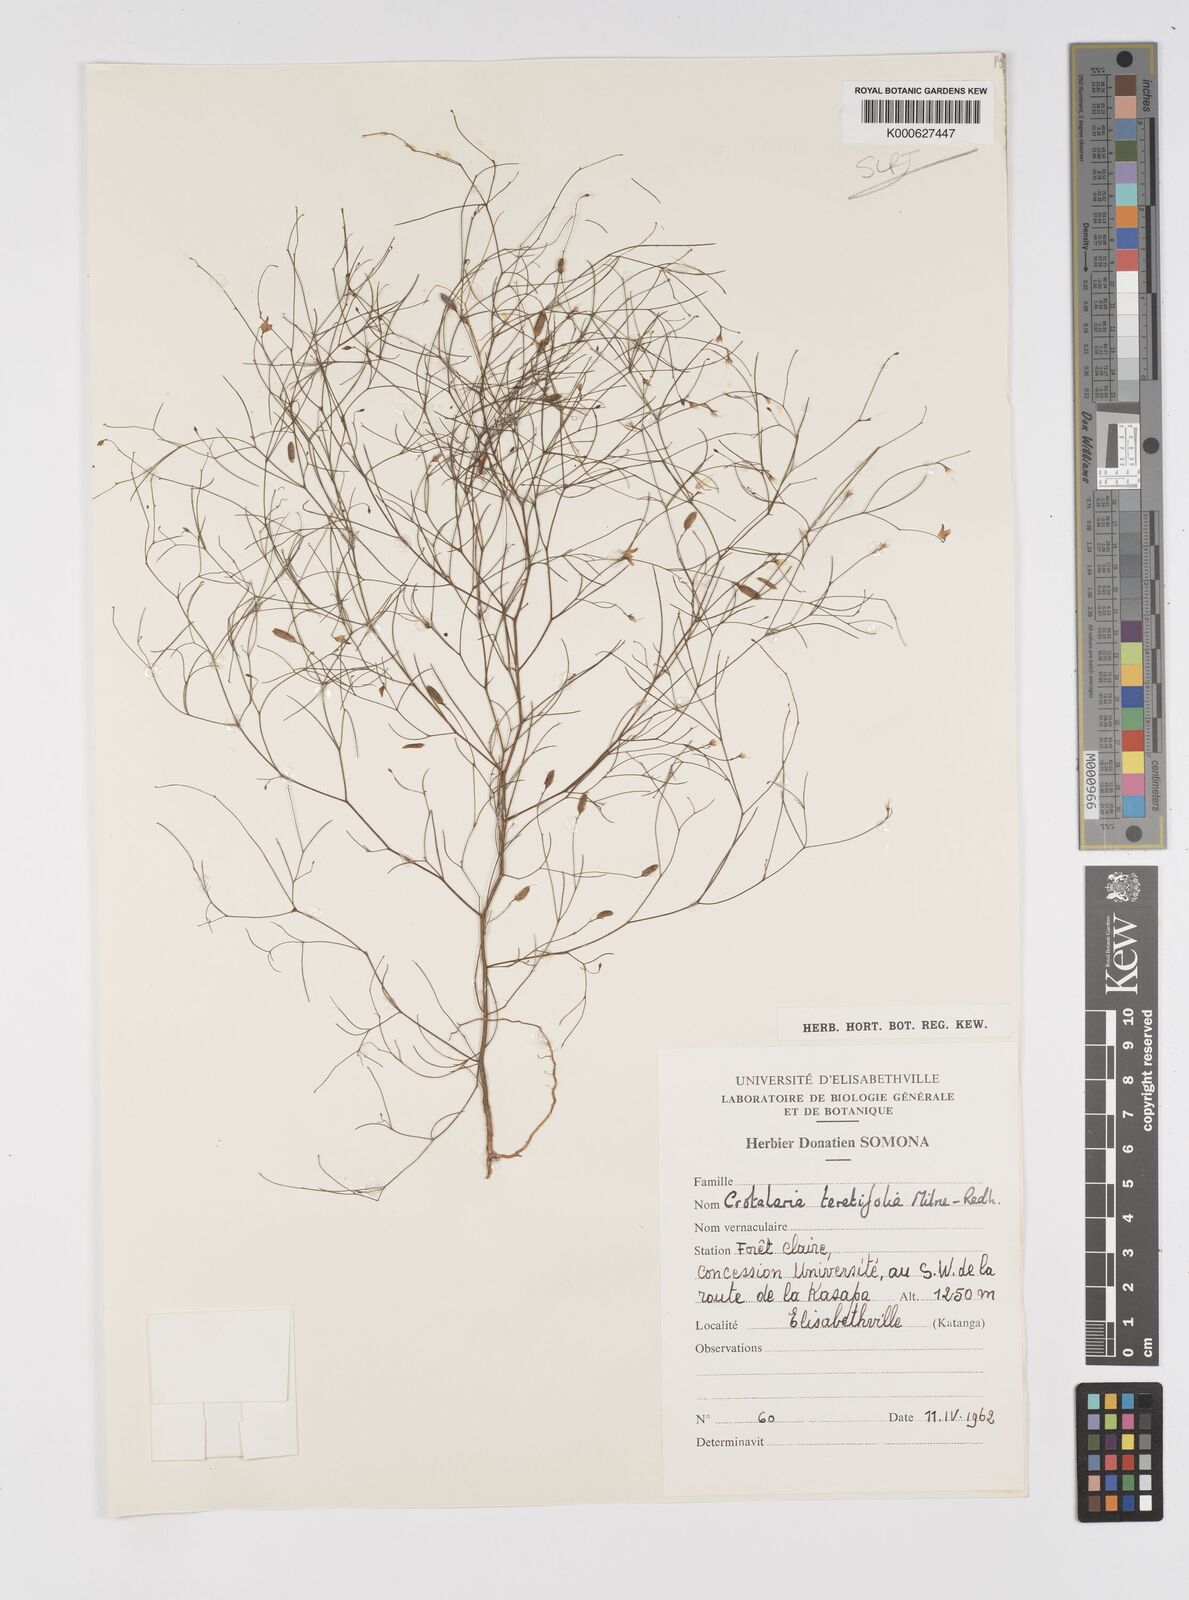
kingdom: Plantae
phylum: Tracheophyta
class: Magnoliopsida
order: Fabales
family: Fabaceae
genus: Crotalaria
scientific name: Crotalaria teretifolia
